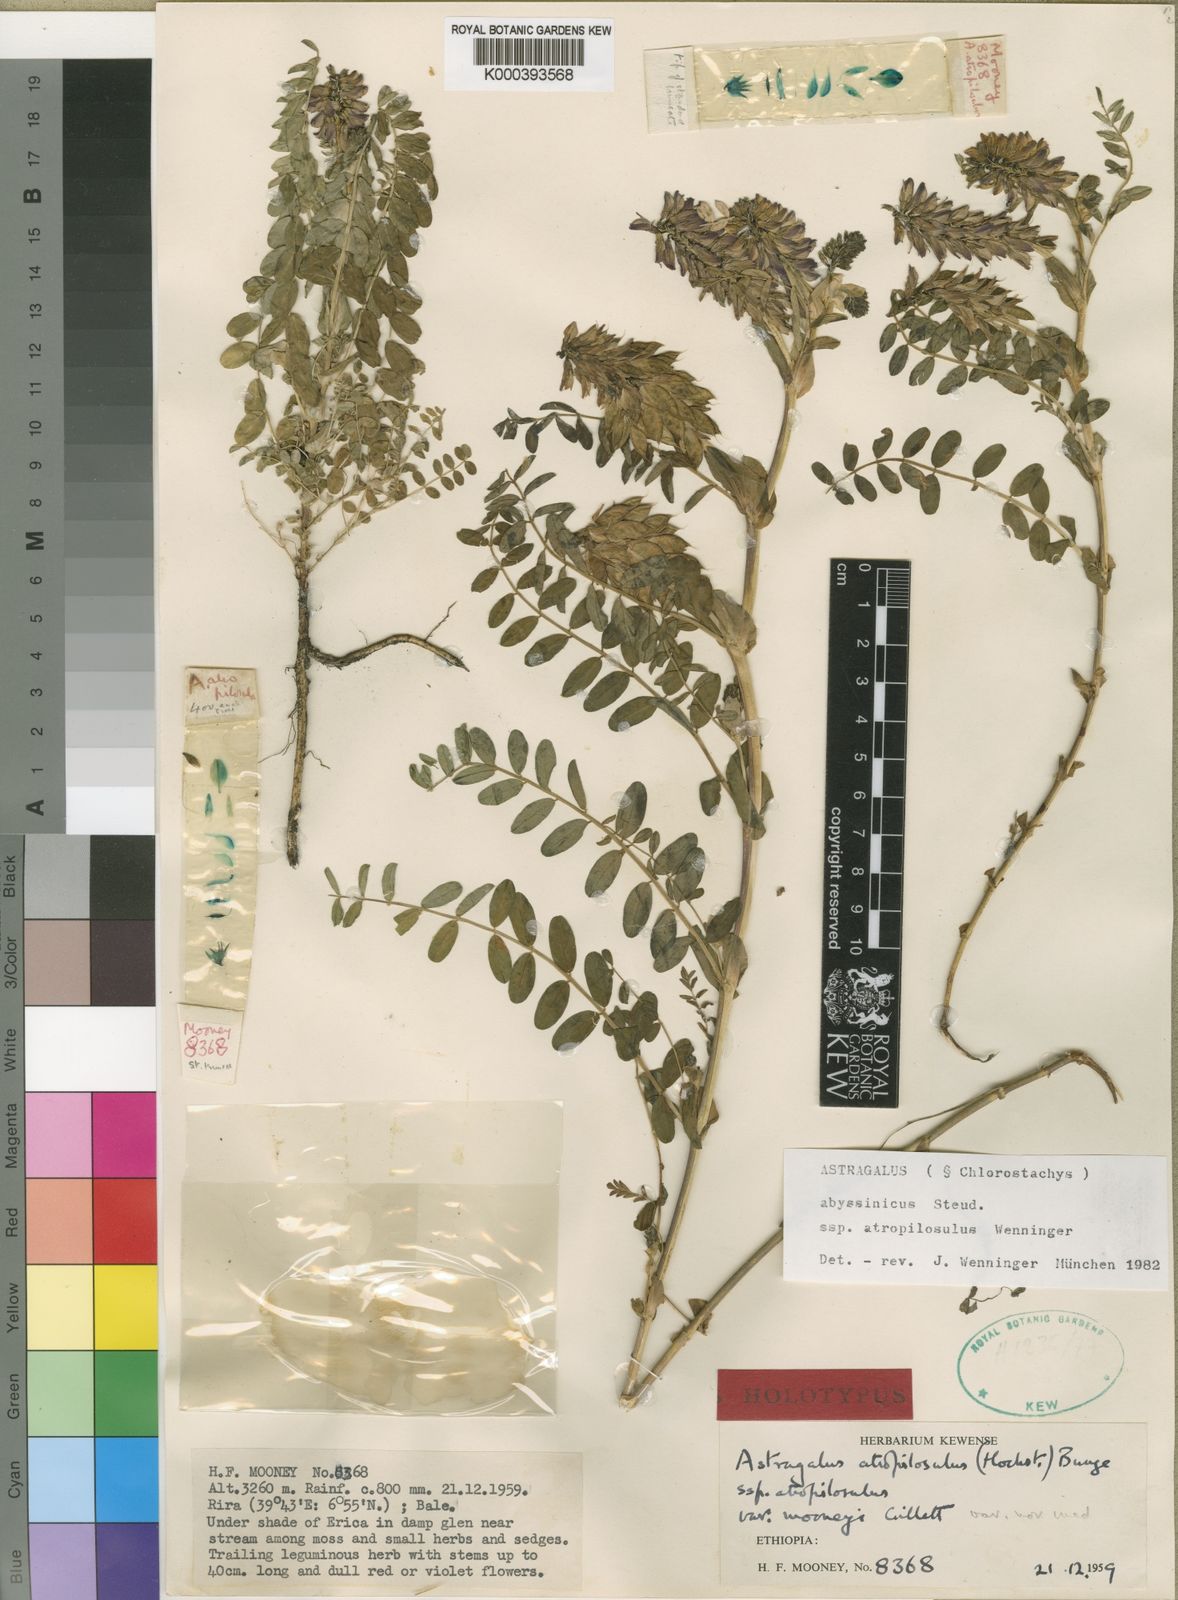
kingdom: Plantae
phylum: Tracheophyta
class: Magnoliopsida
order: Fabales
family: Fabaceae
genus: Astragalus
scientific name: Astragalus atropilosulus
